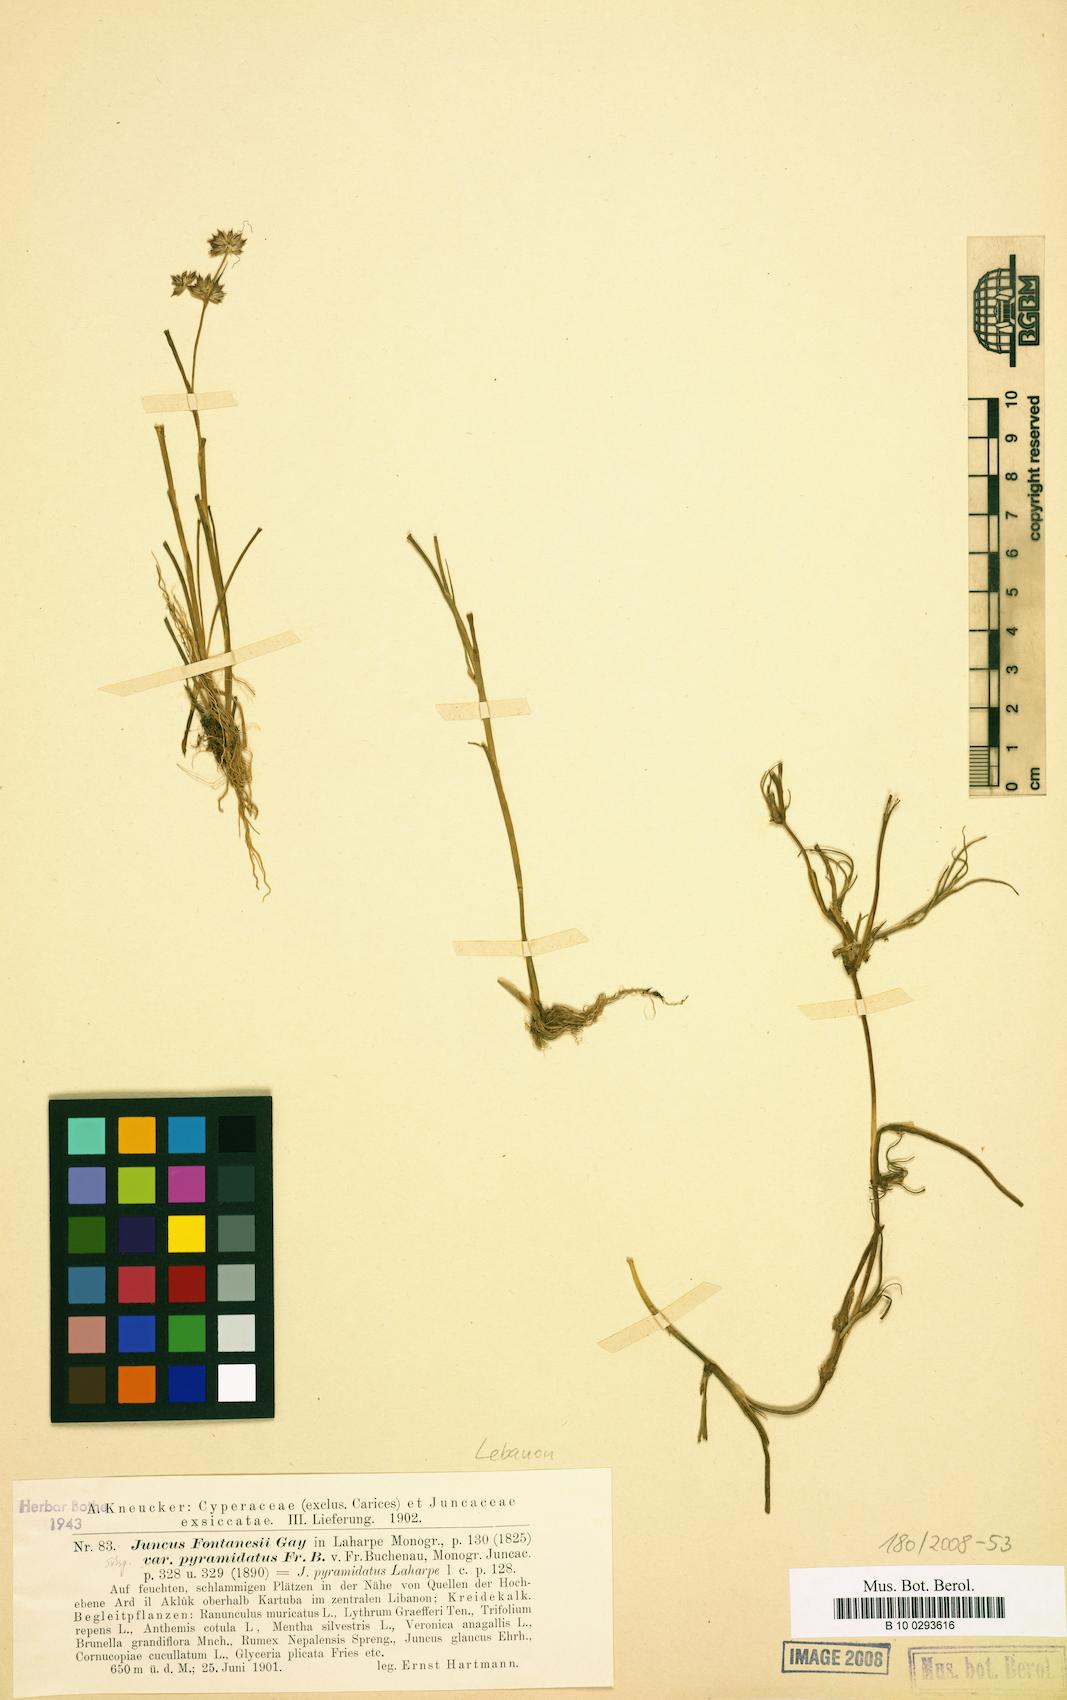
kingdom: Plantae
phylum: Tracheophyta
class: Liliopsida
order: Poales
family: Juncaceae
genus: Juncus
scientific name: Juncus fontanesii
